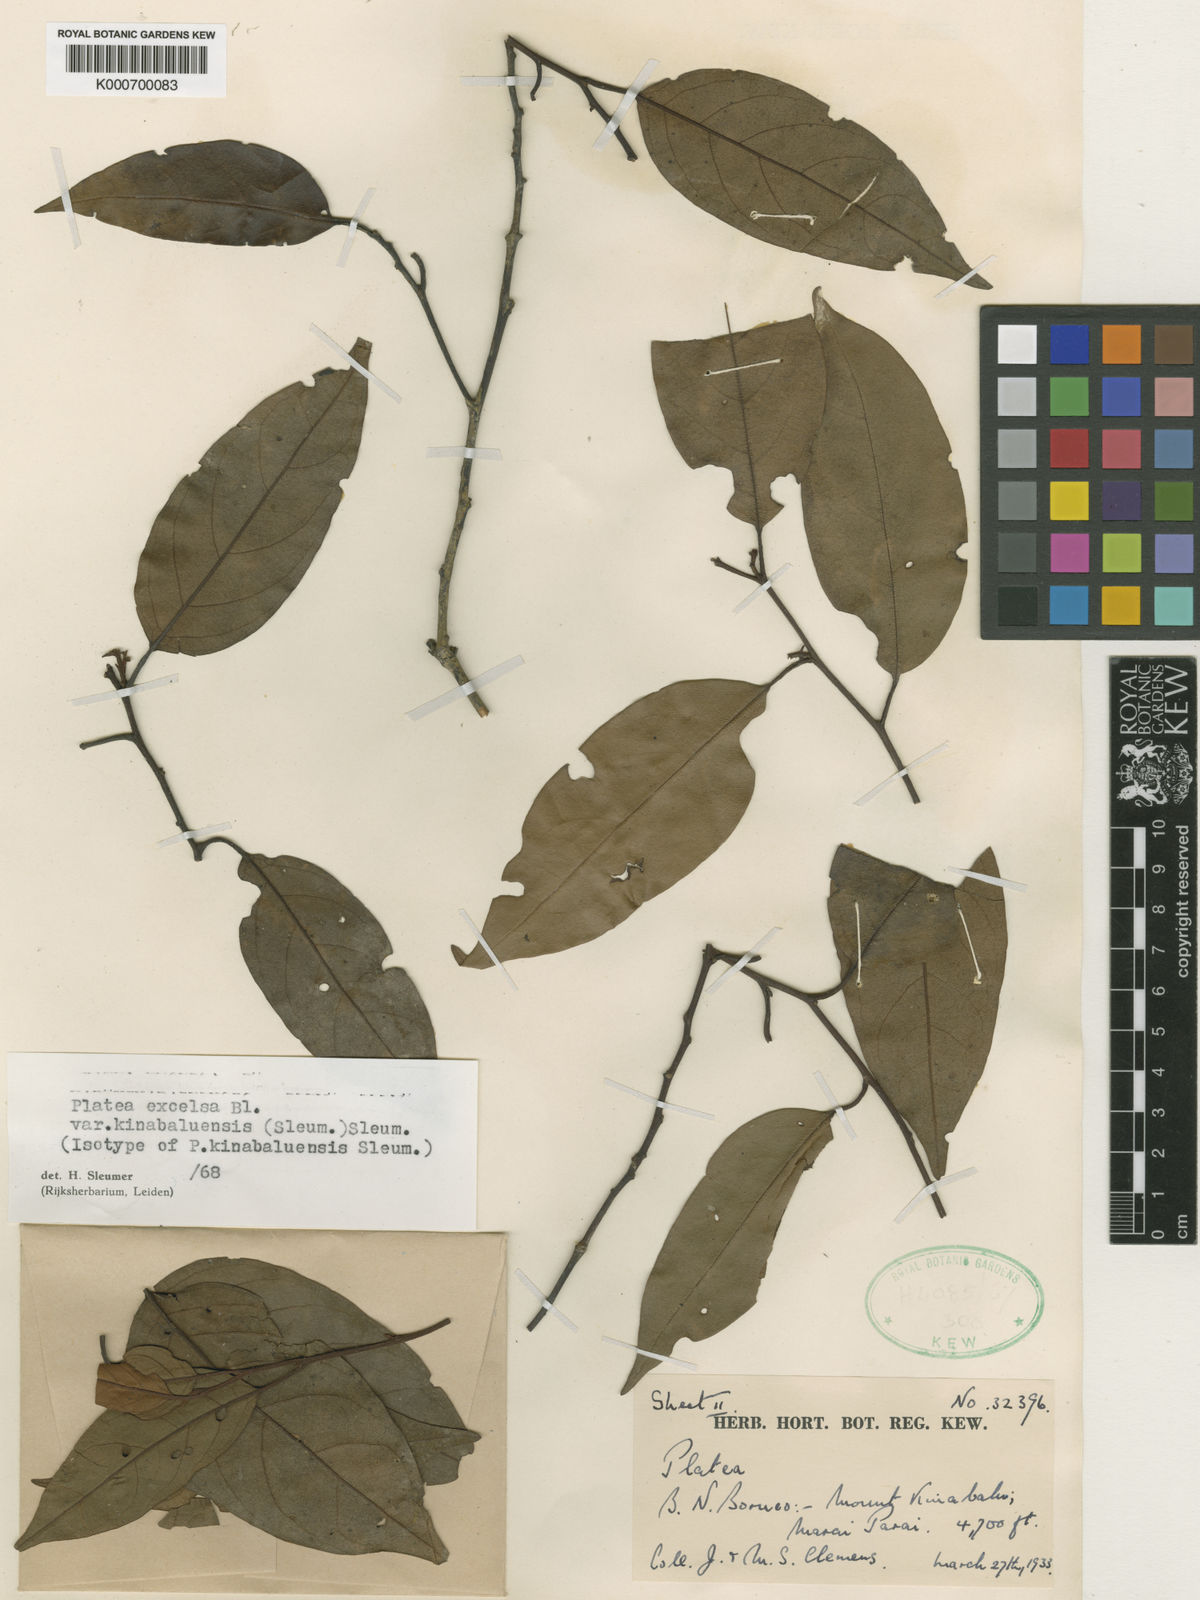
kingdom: Plantae
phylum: Tracheophyta
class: Magnoliopsida
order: Metteniusales
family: Metteniusaceae
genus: Platea
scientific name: Platea excelsa
